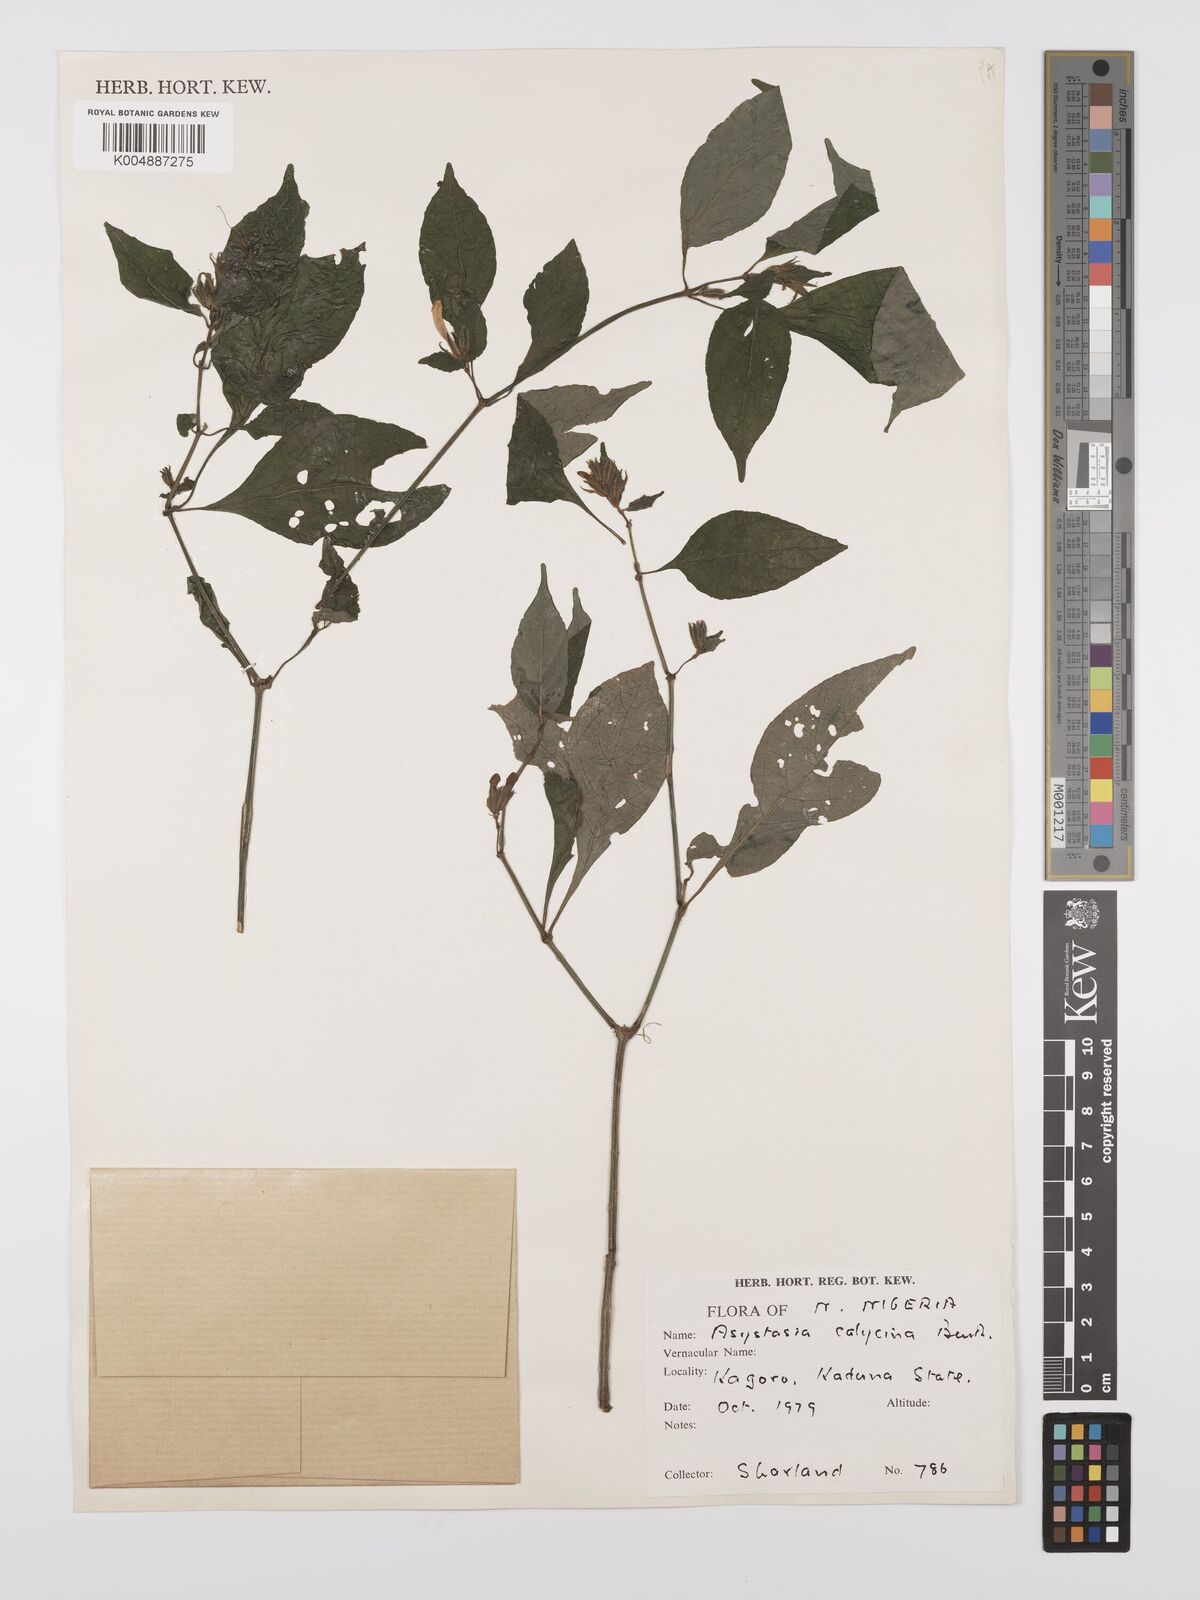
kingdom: Plantae
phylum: Tracheophyta
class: Magnoliopsida
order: Lamiales
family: Acanthaceae
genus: Asystasia
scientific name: Asystasia buettneri
